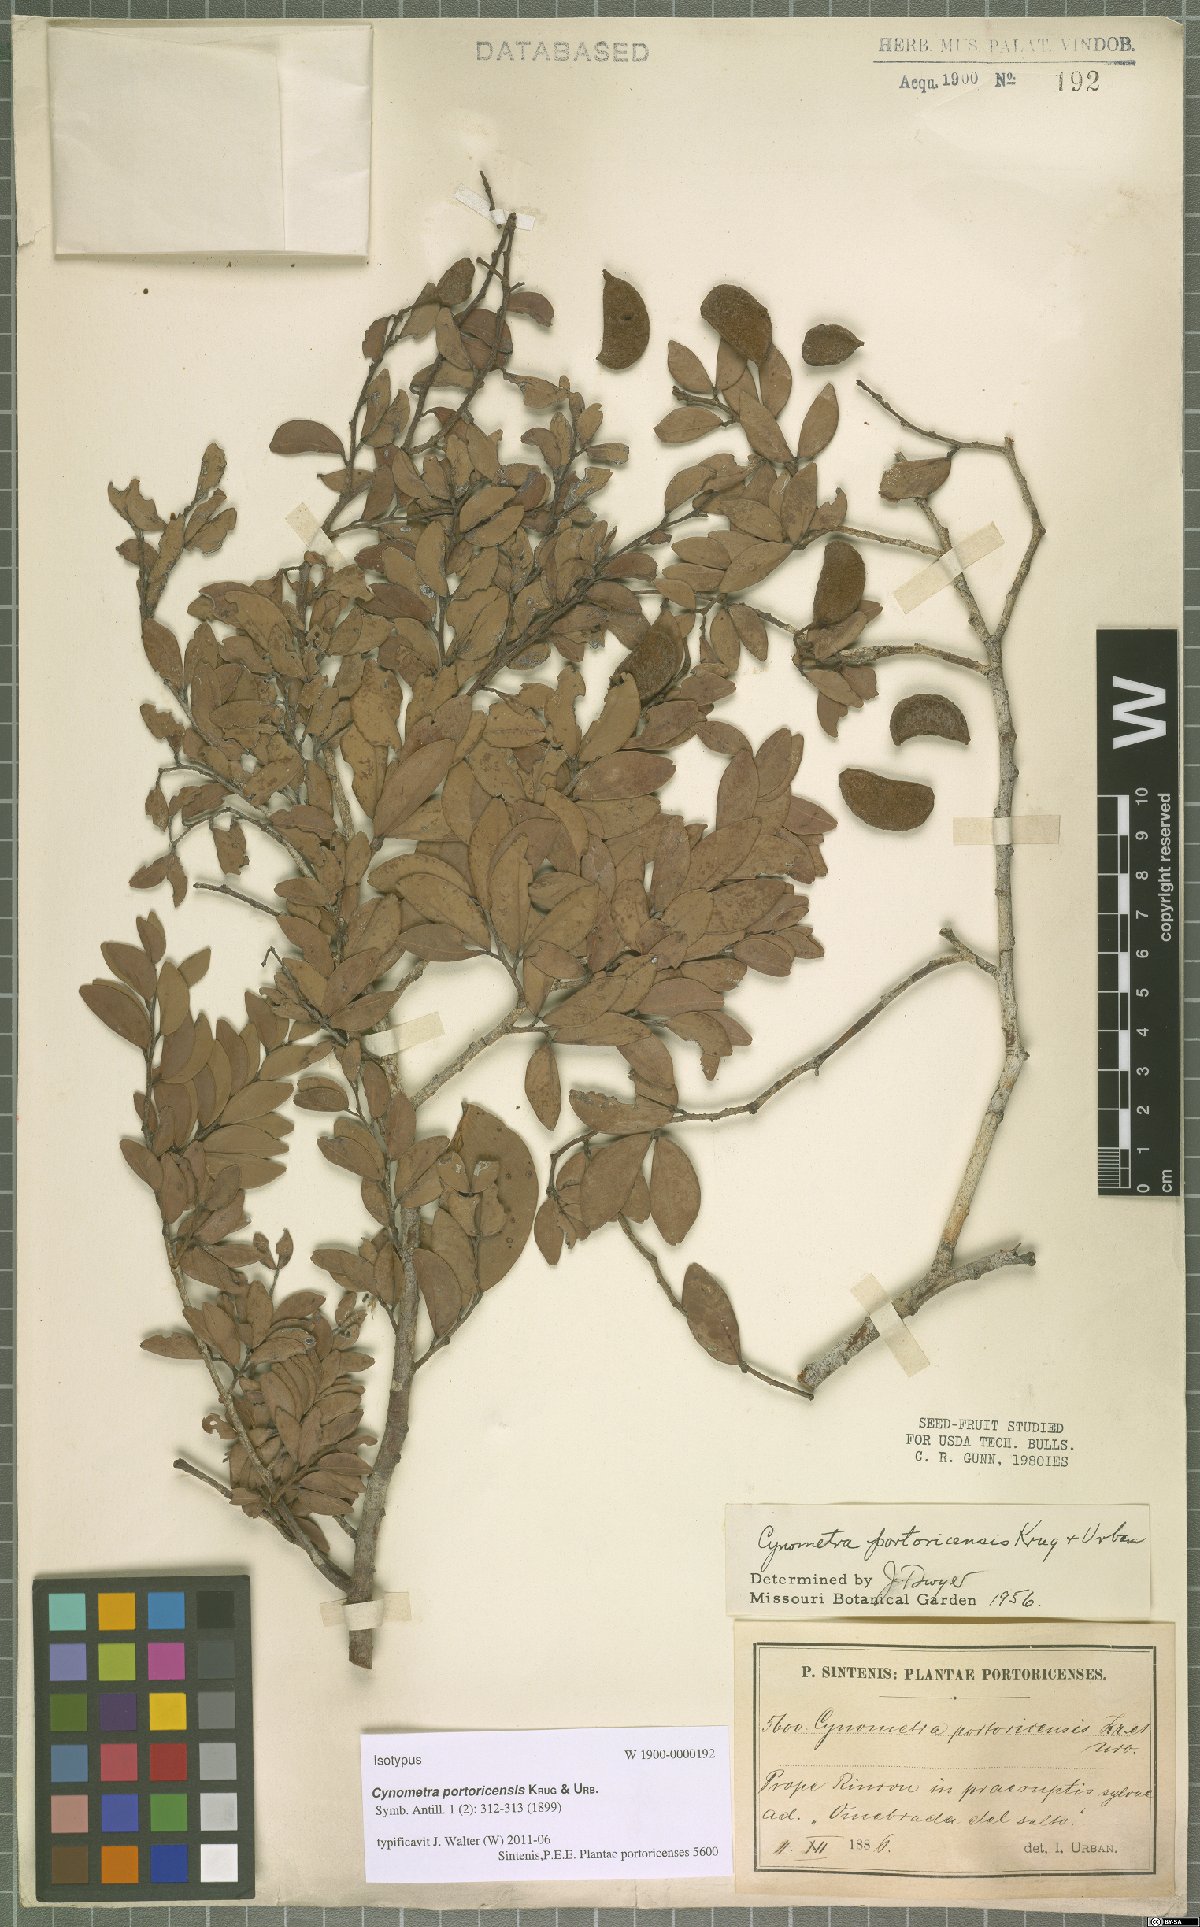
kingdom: Plantae
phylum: Tracheophyta
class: Magnoliopsida
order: Fabales
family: Fabaceae
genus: Cynometra
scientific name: Cynometra portoricensis
